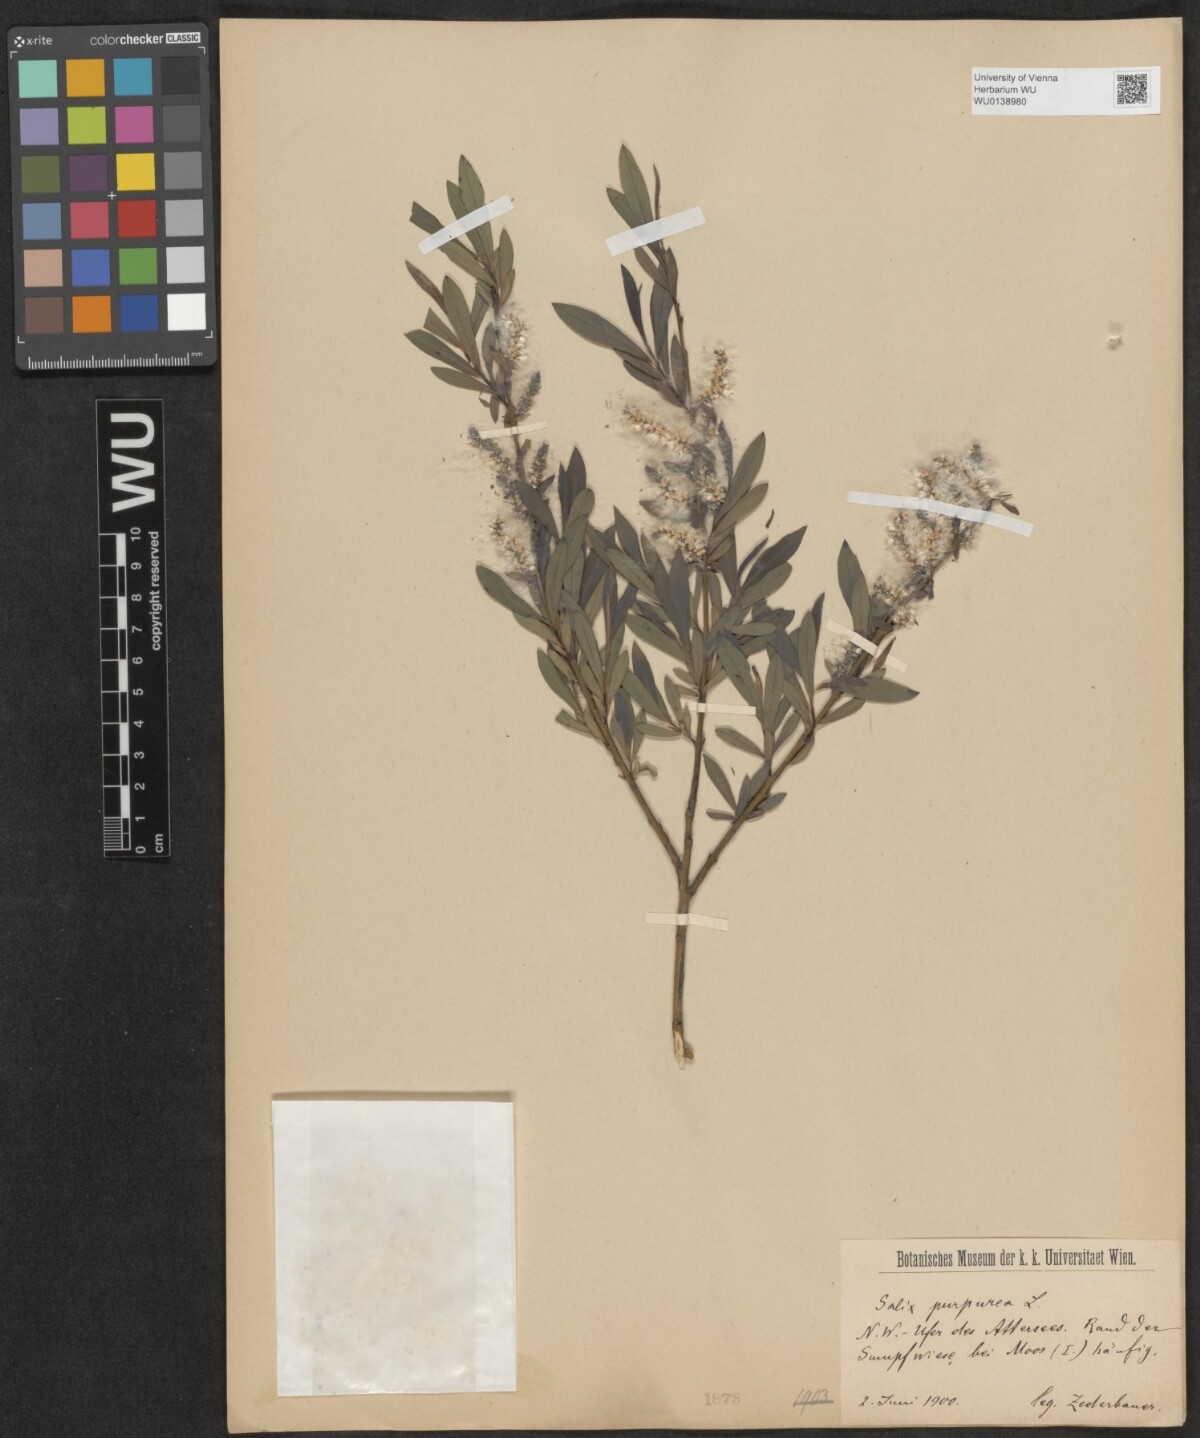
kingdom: Plantae
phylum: Tracheophyta
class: Magnoliopsida
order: Malpighiales
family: Salicaceae
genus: Salix
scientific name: Salix purpurea
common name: Purple willow
